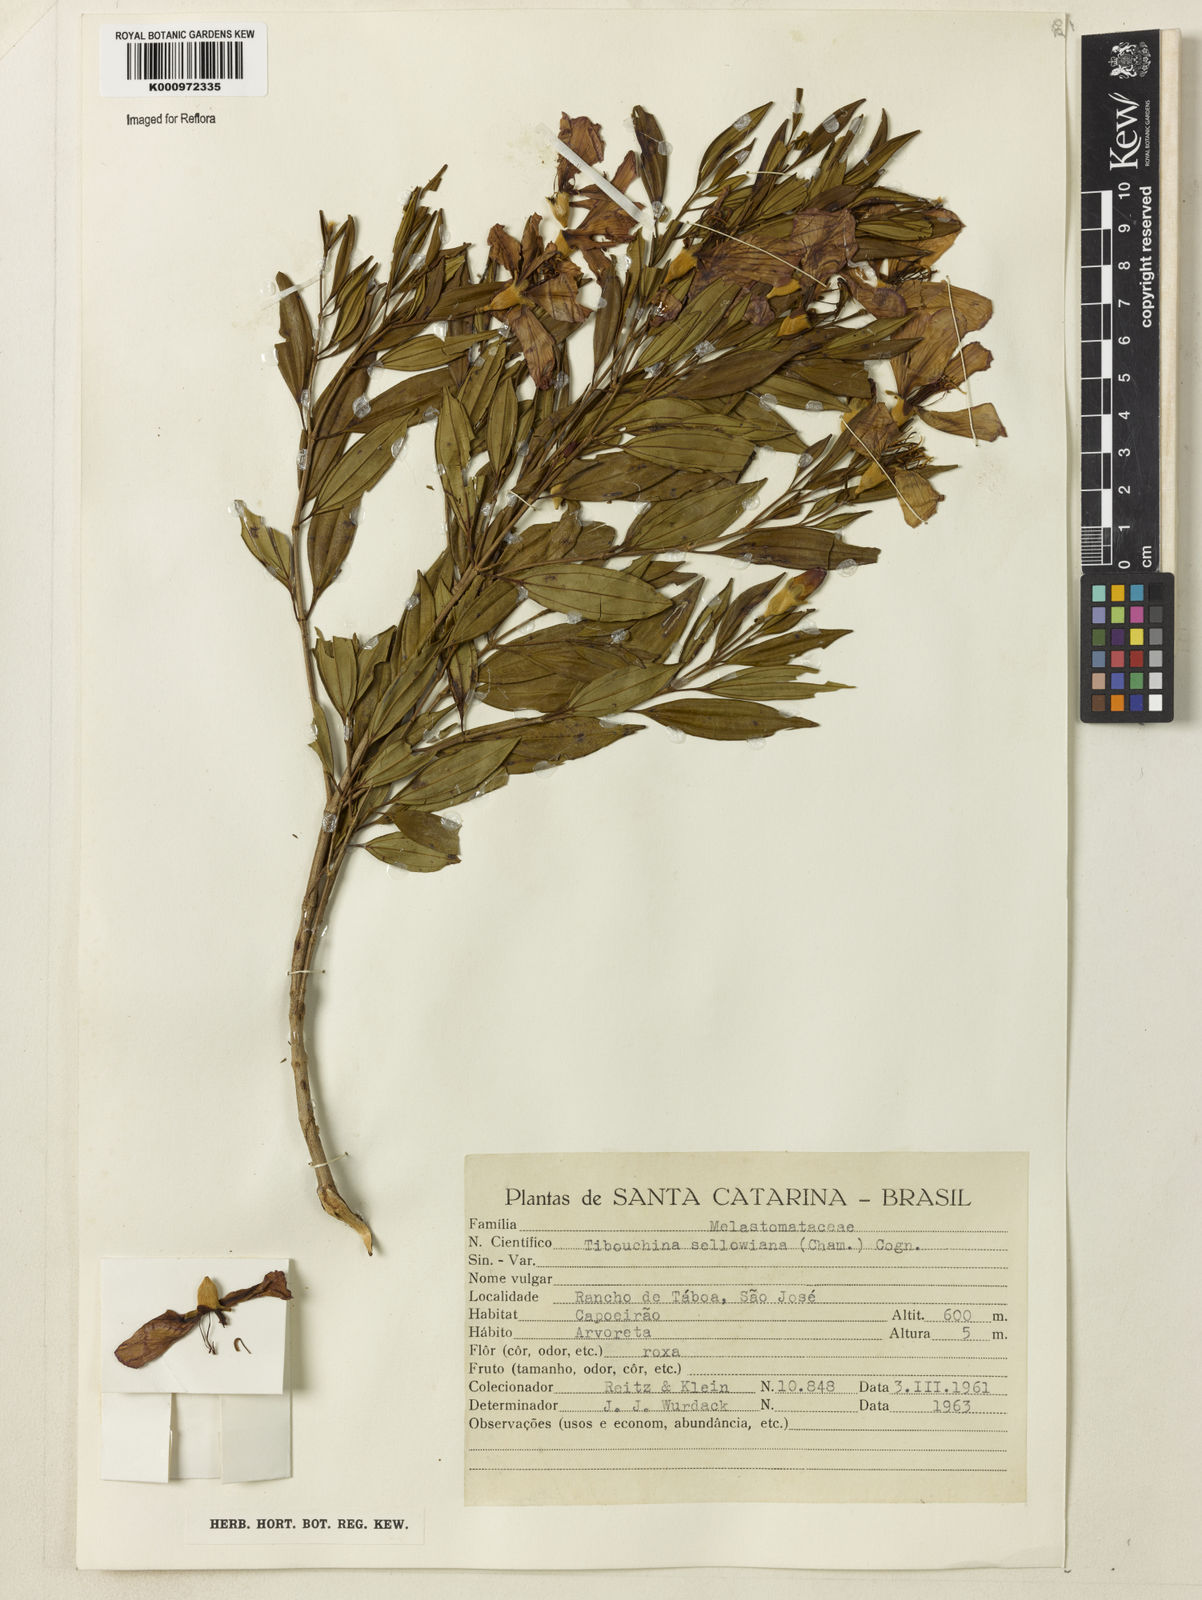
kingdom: Plantae
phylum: Tracheophyta
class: Magnoliopsida
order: Myrtales
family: Melastomataceae
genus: Pleroma
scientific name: Pleroma sellowianum
